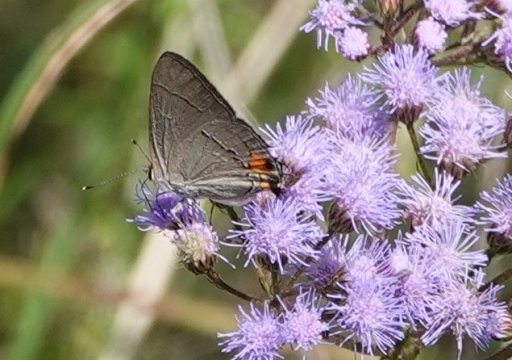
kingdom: Animalia
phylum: Arthropoda
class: Insecta
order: Lepidoptera
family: Lycaenidae
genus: Strymon
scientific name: Strymon melinus
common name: Gray Hairstreak
